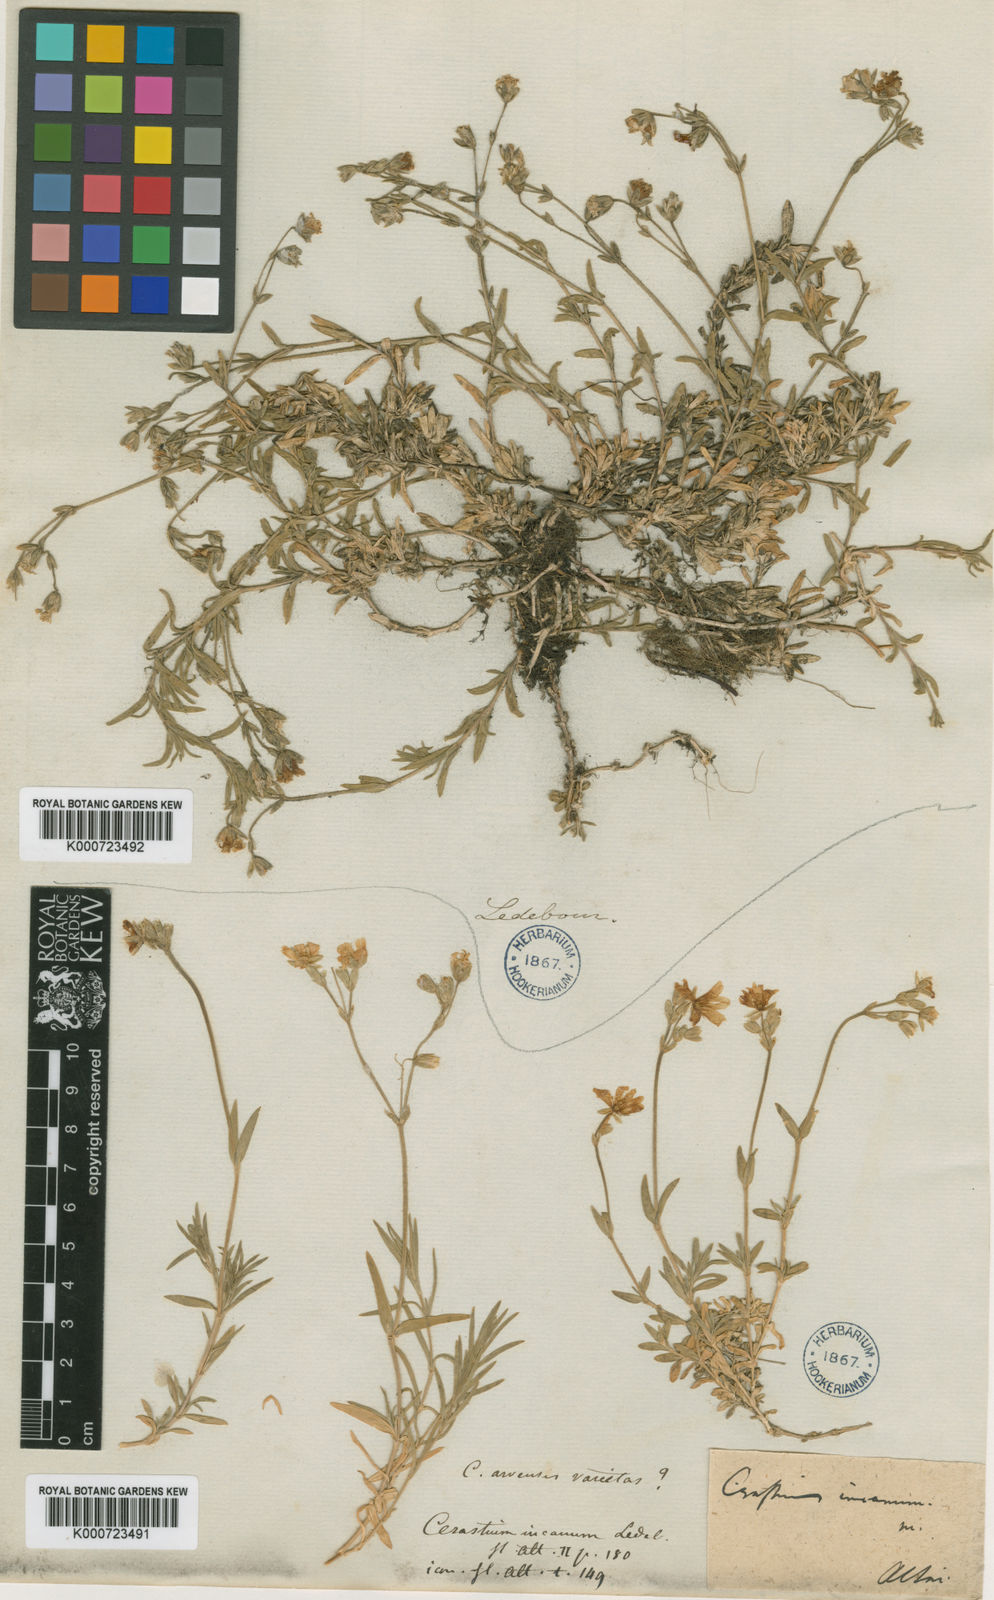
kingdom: Plantae
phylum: Tracheophyta
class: Magnoliopsida
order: Caryophyllales
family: Caryophyllaceae
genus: Cerastium
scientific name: Cerastium elongatum
